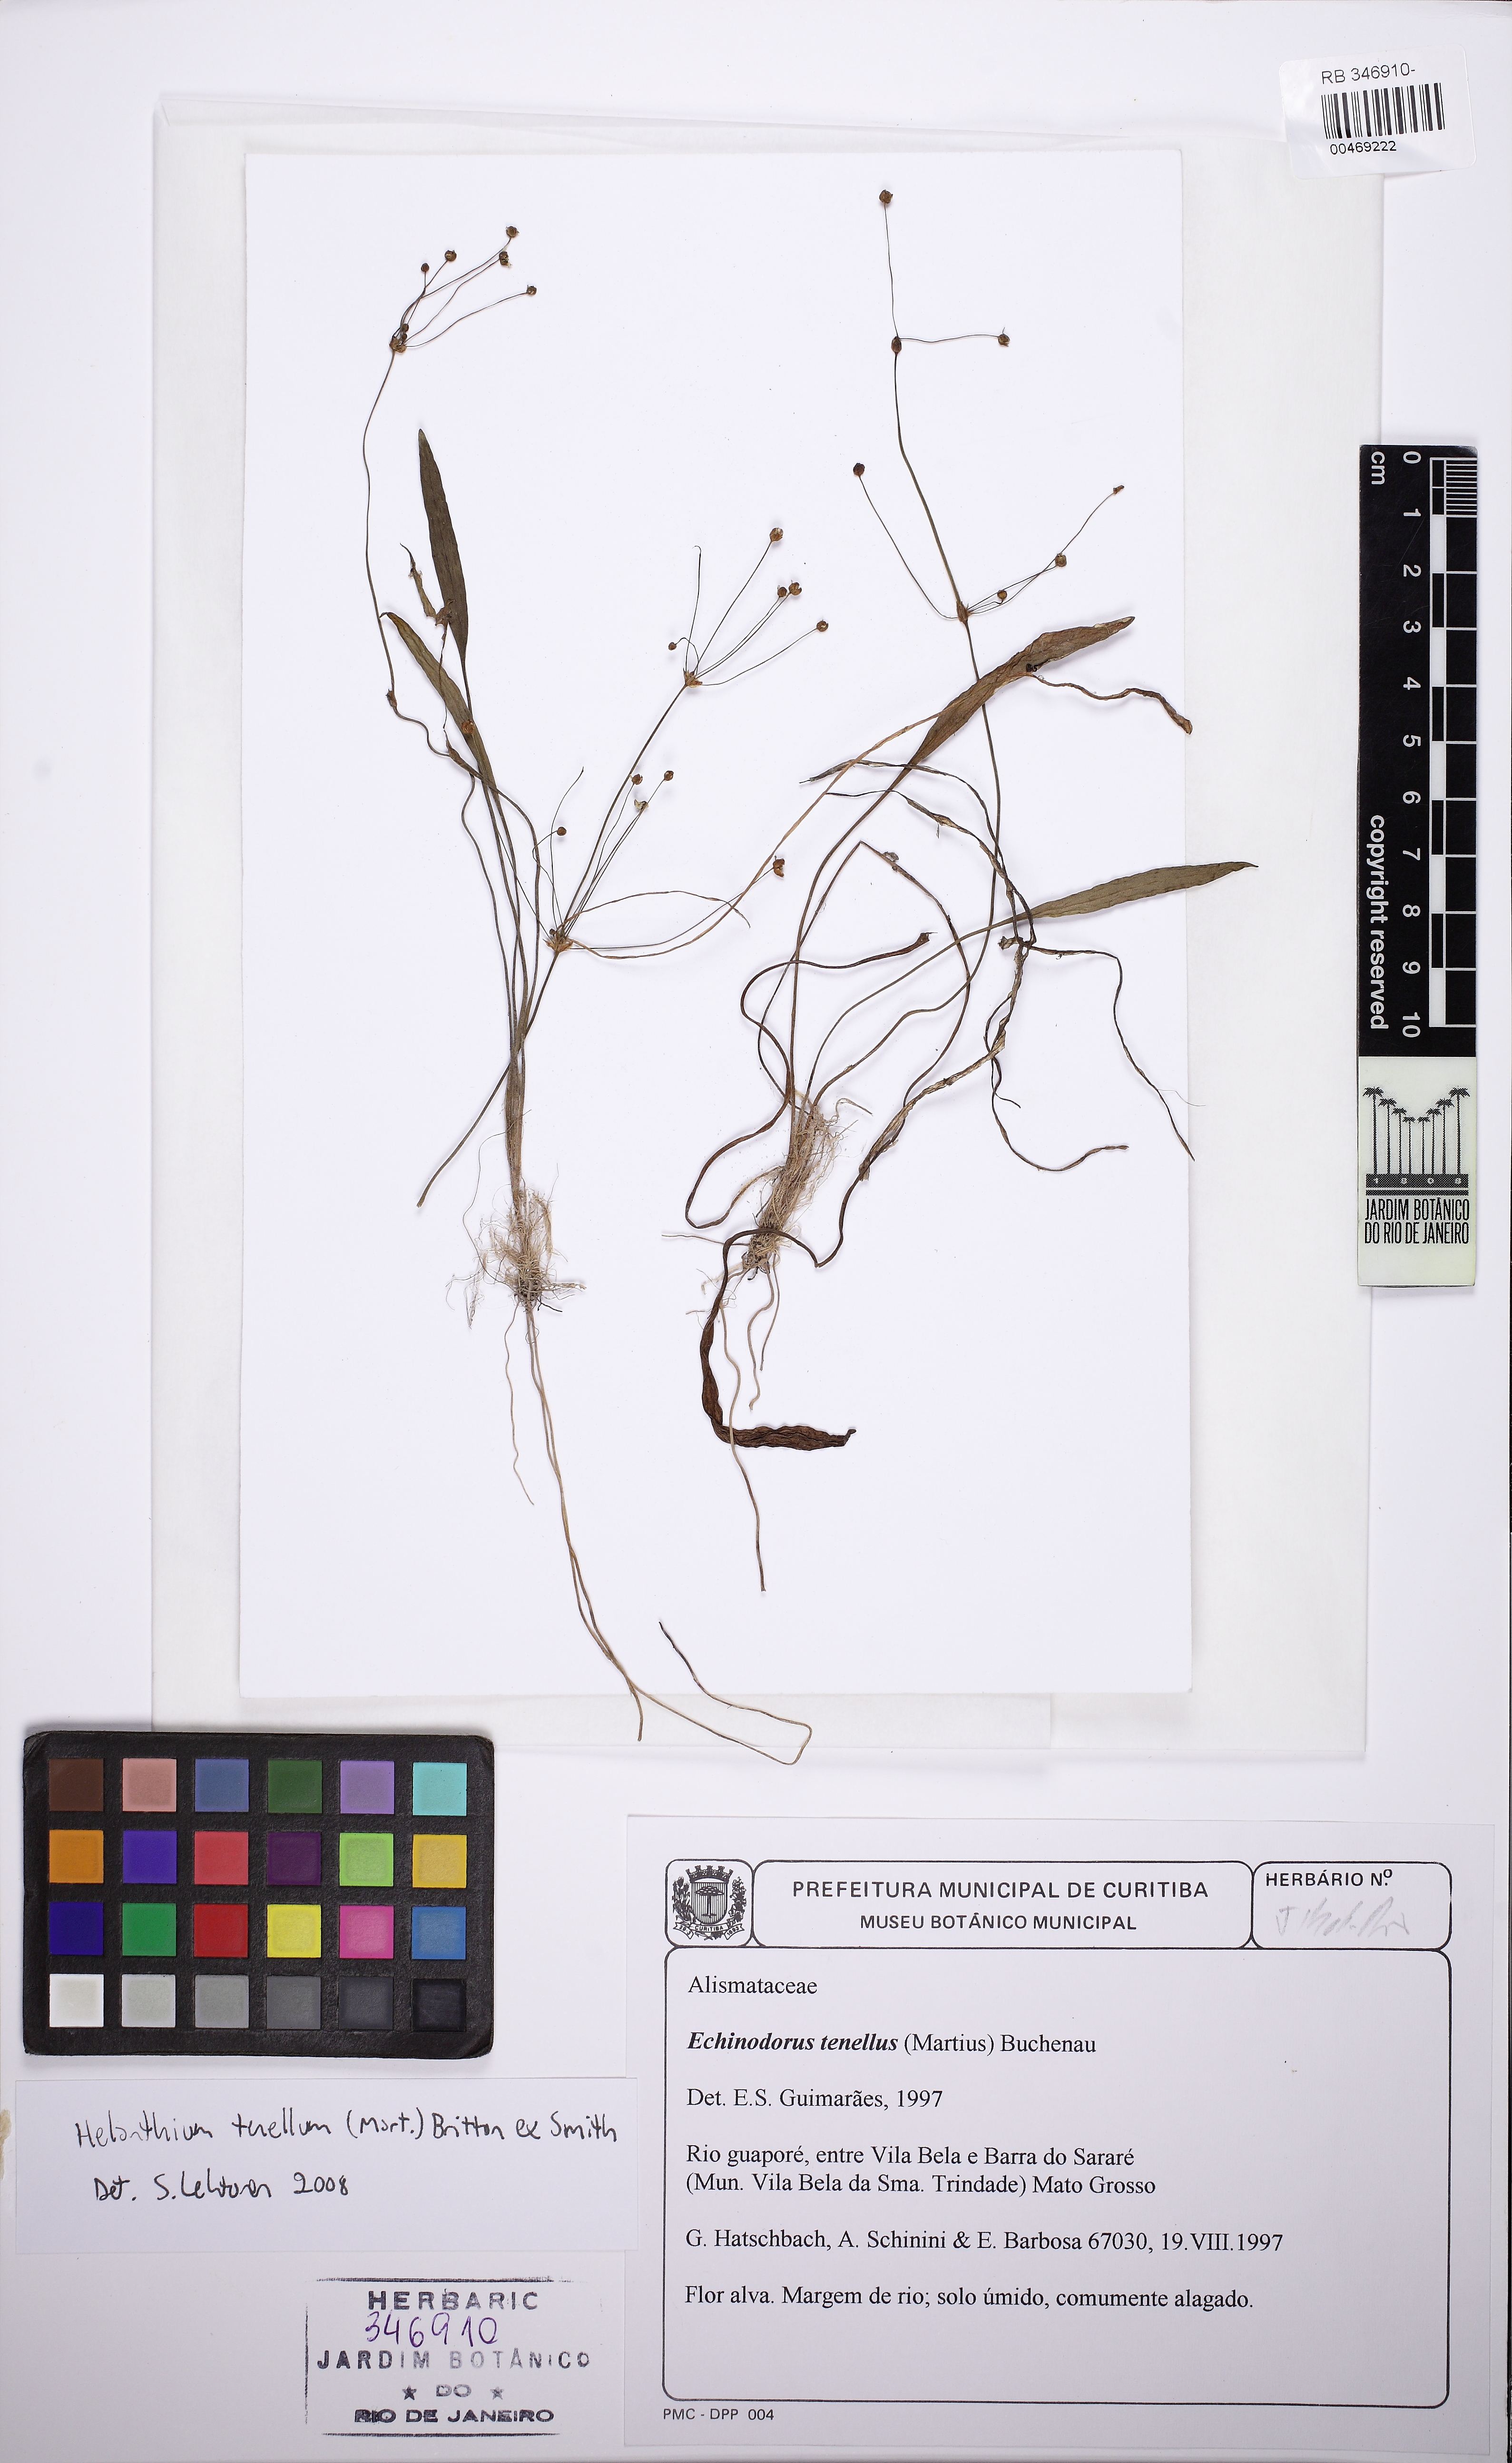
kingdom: Plantae
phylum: Tracheophyta
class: Liliopsida
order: Alismatales
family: Alismataceae
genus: Helanthium
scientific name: Helanthium tenellum
